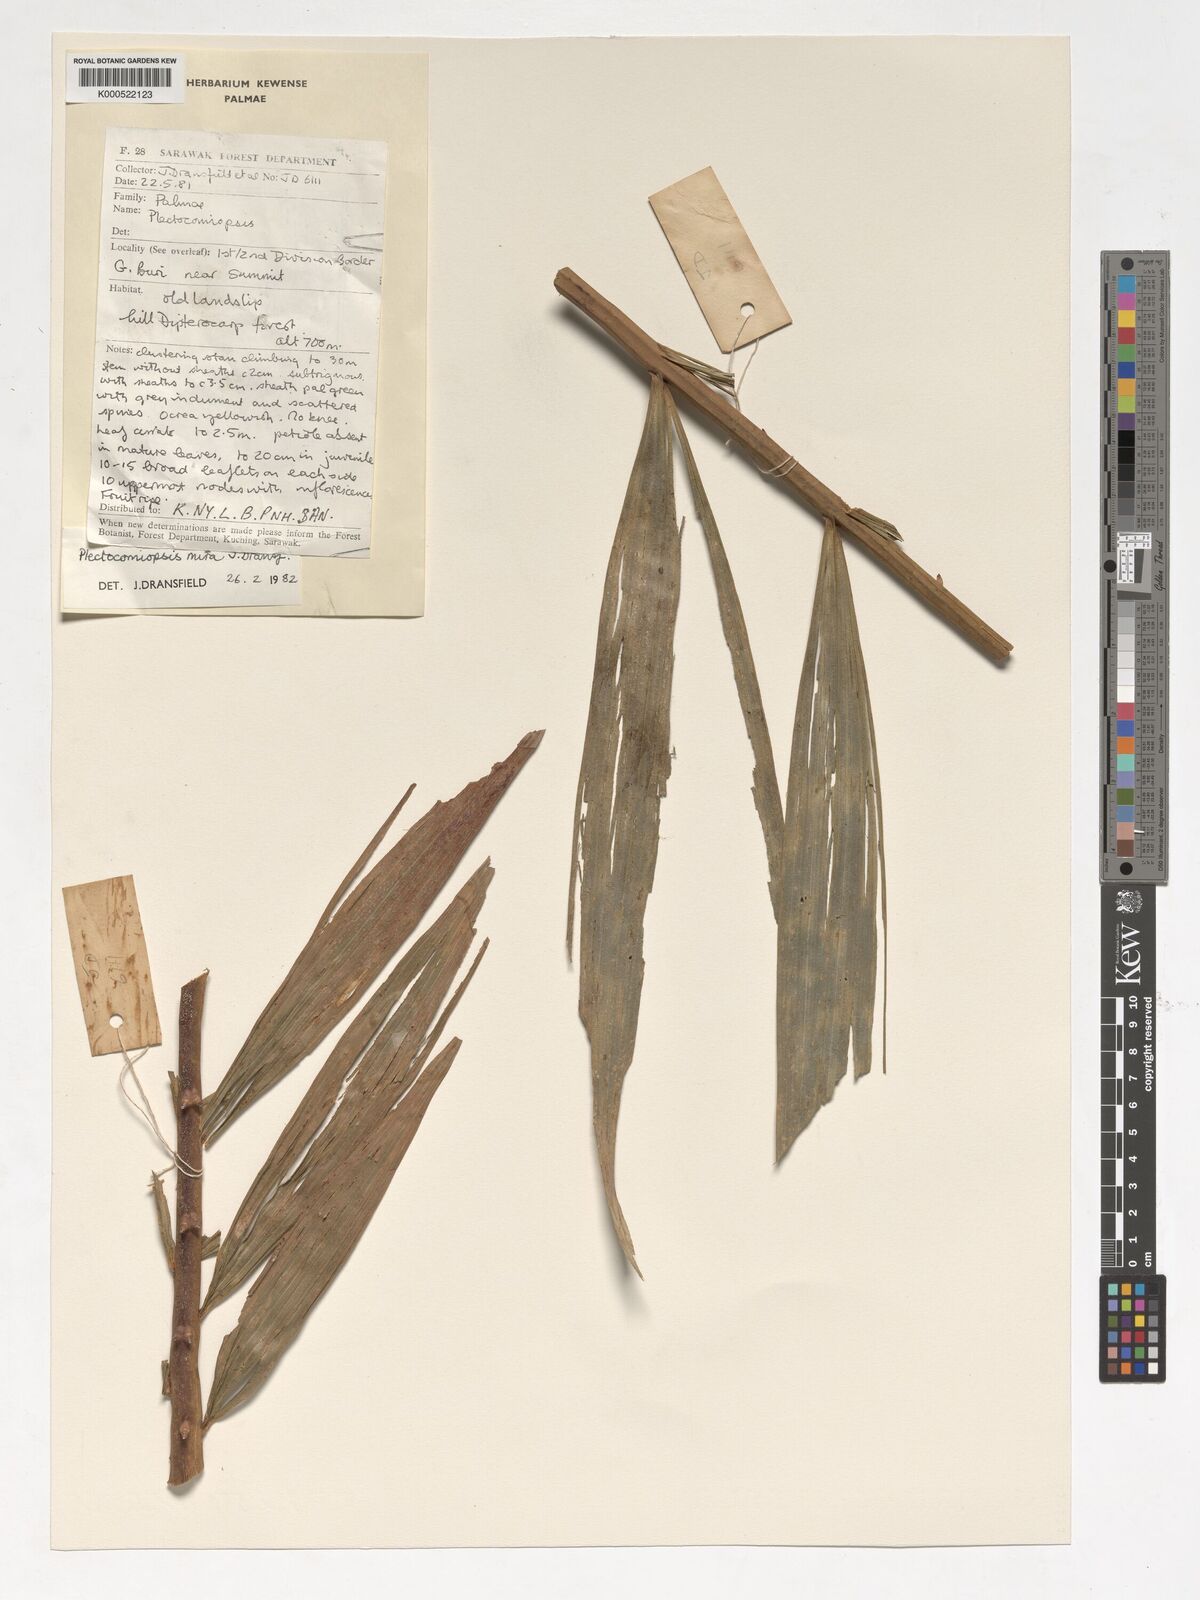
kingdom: Plantae
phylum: Tracheophyta
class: Liliopsida
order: Arecales
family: Arecaceae
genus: Plectocomiopsis
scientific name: Plectocomiopsis mira
